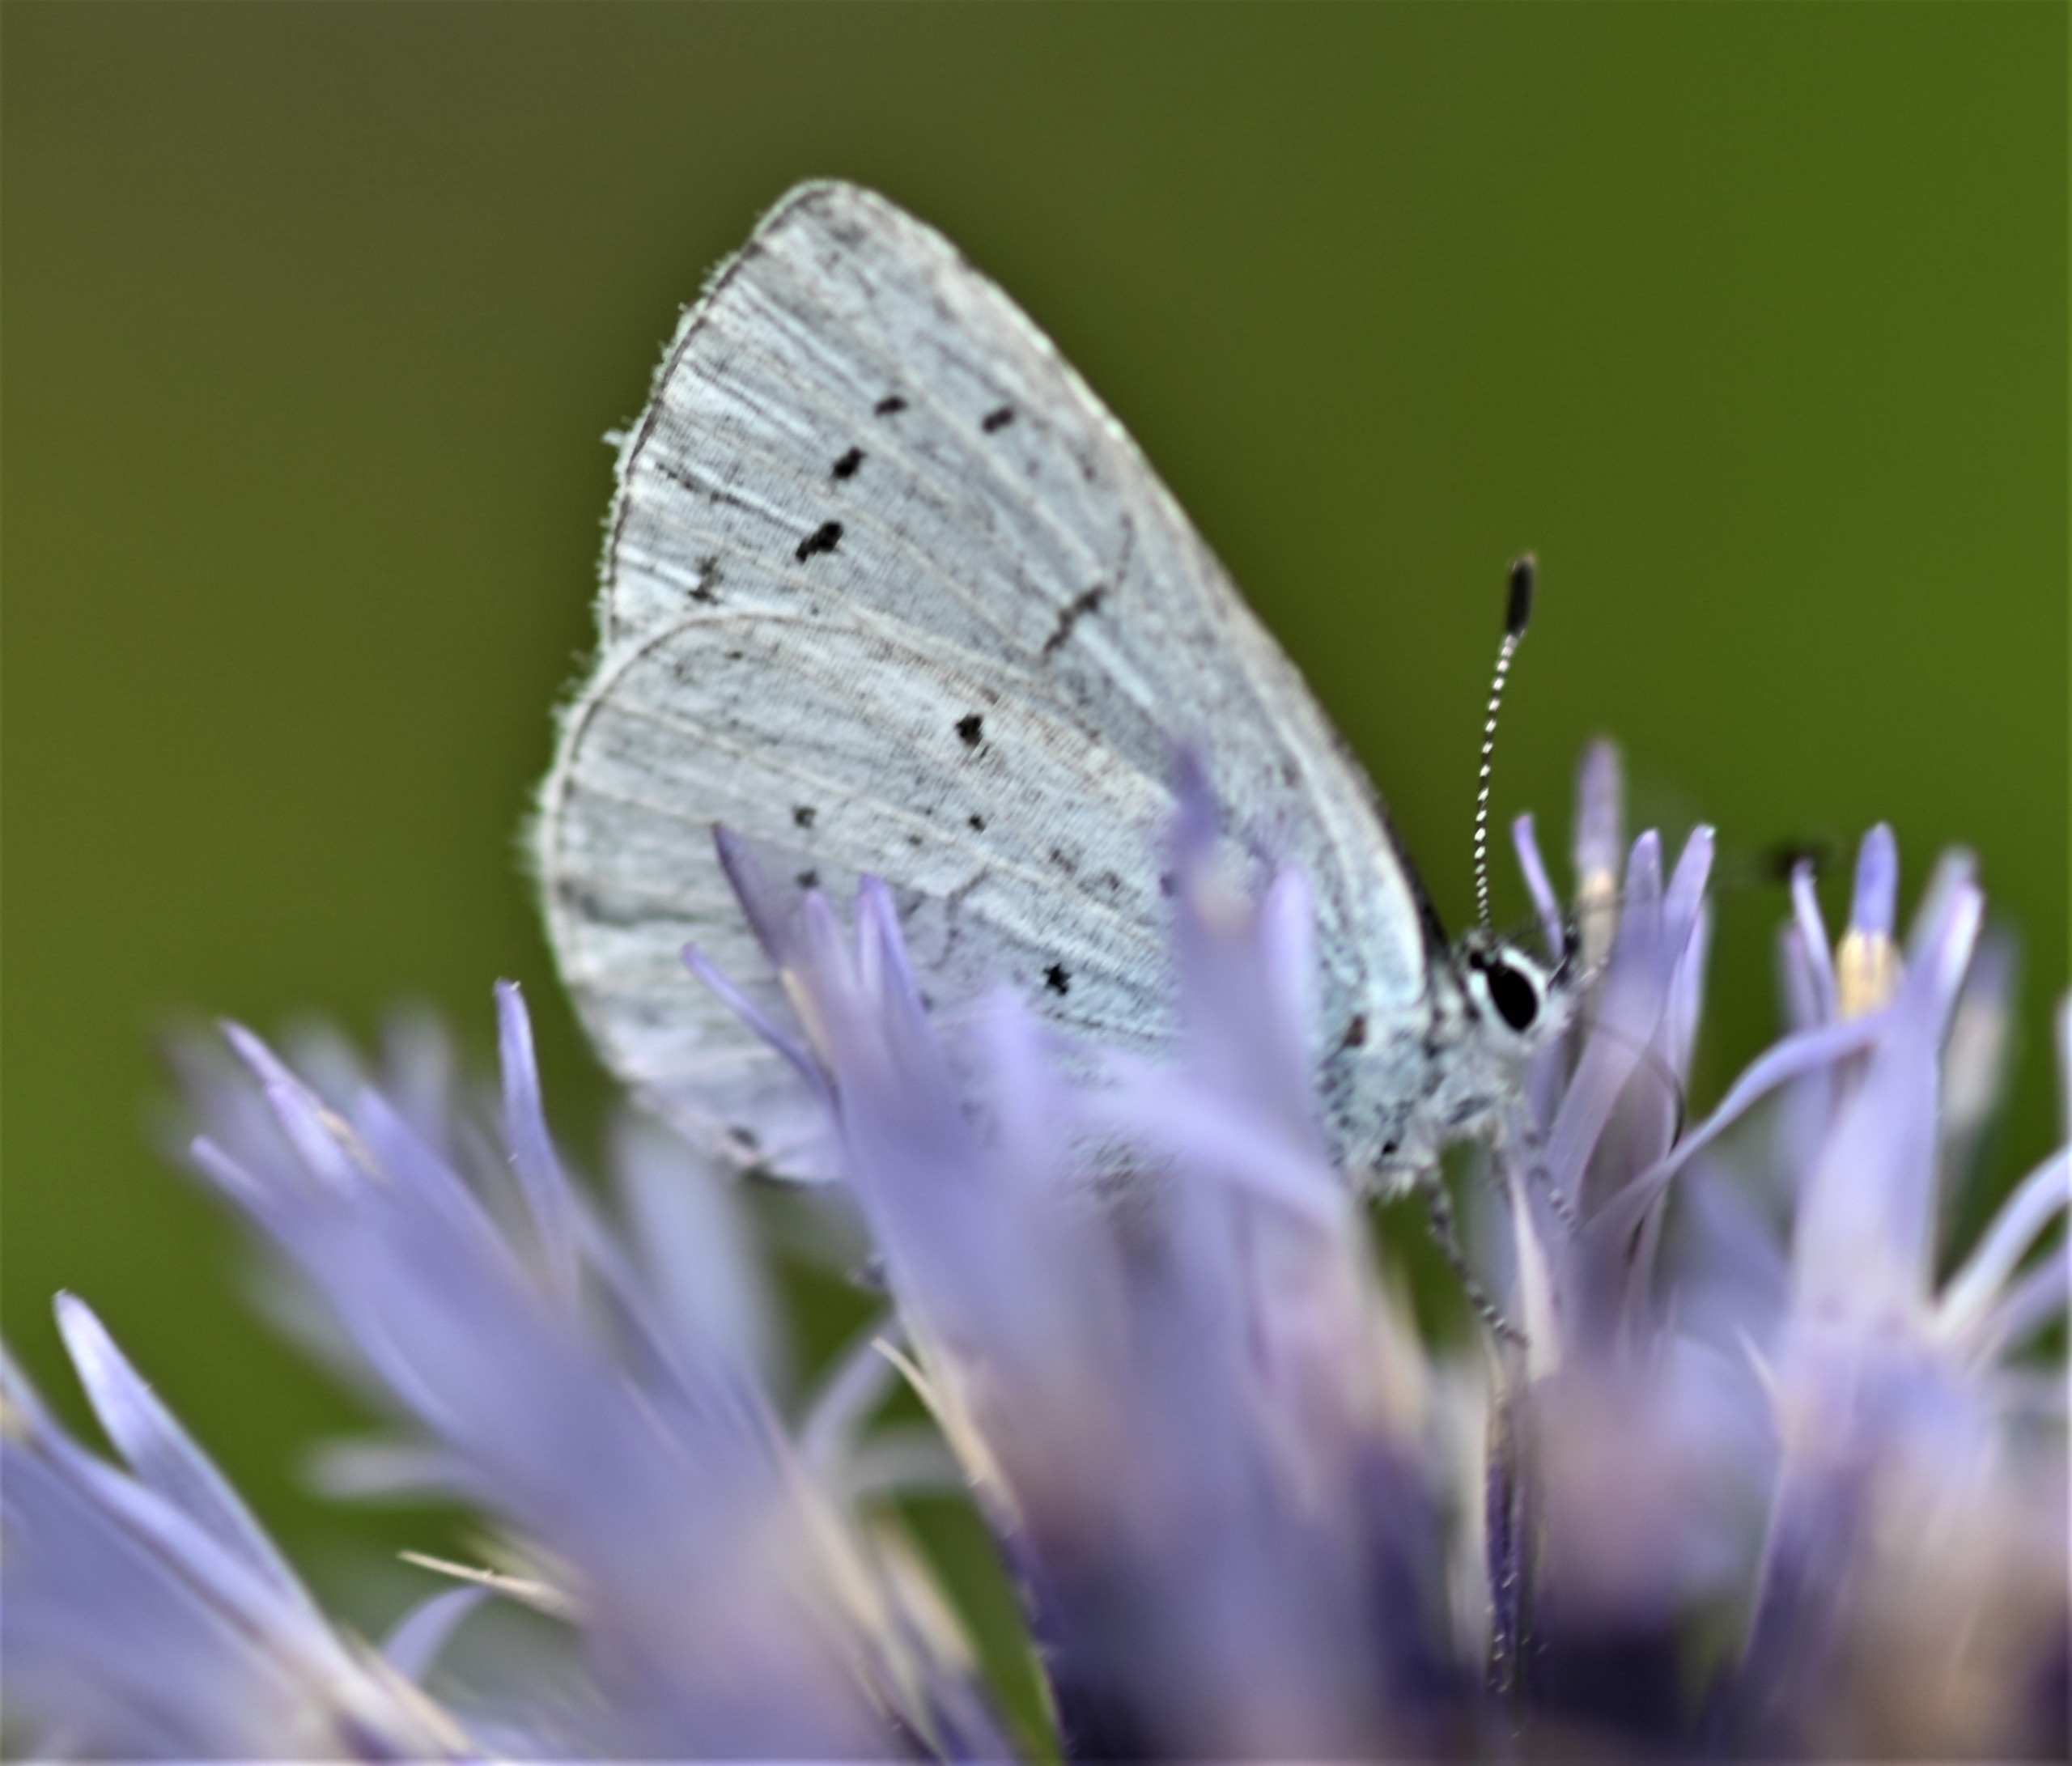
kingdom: Animalia
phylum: Arthropoda
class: Insecta
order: Lepidoptera
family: Lycaenidae
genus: Celastrina
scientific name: Celastrina argiolus
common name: Skovblåfugl
